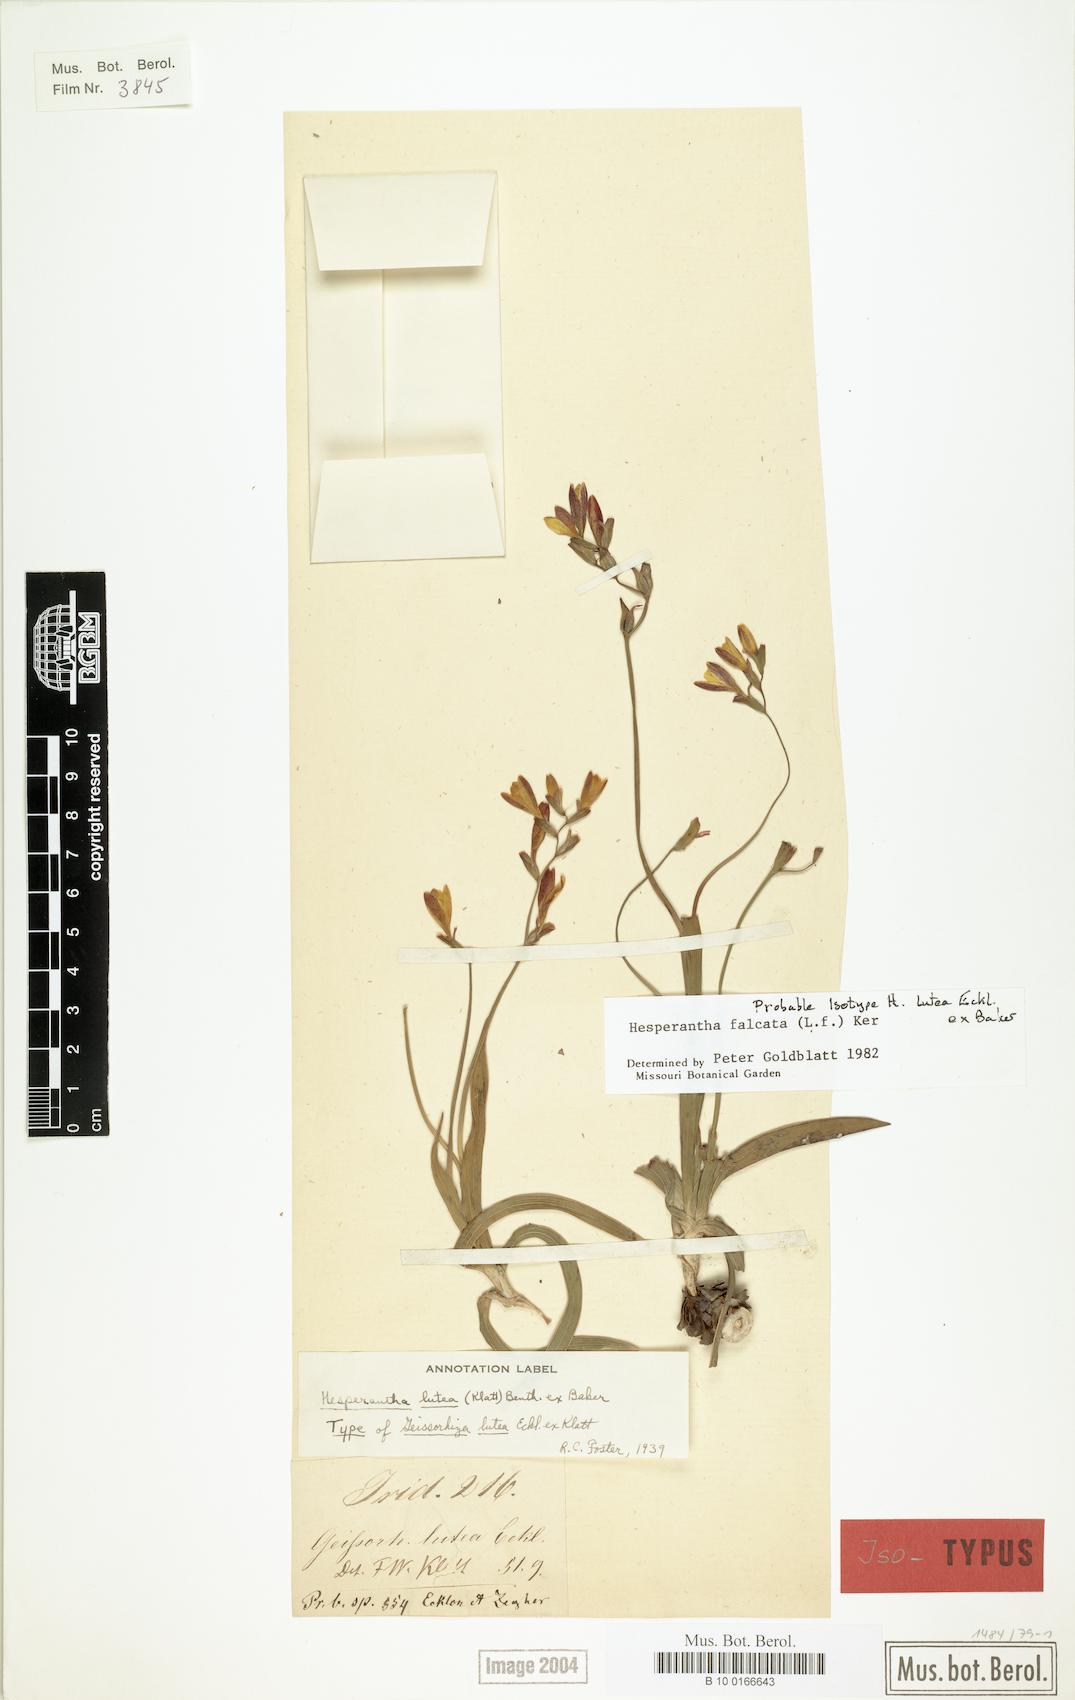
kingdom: Plantae
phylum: Tracheophyta
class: Liliopsida
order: Asparagales
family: Iridaceae
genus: Hesperantha
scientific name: Hesperantha falcata
